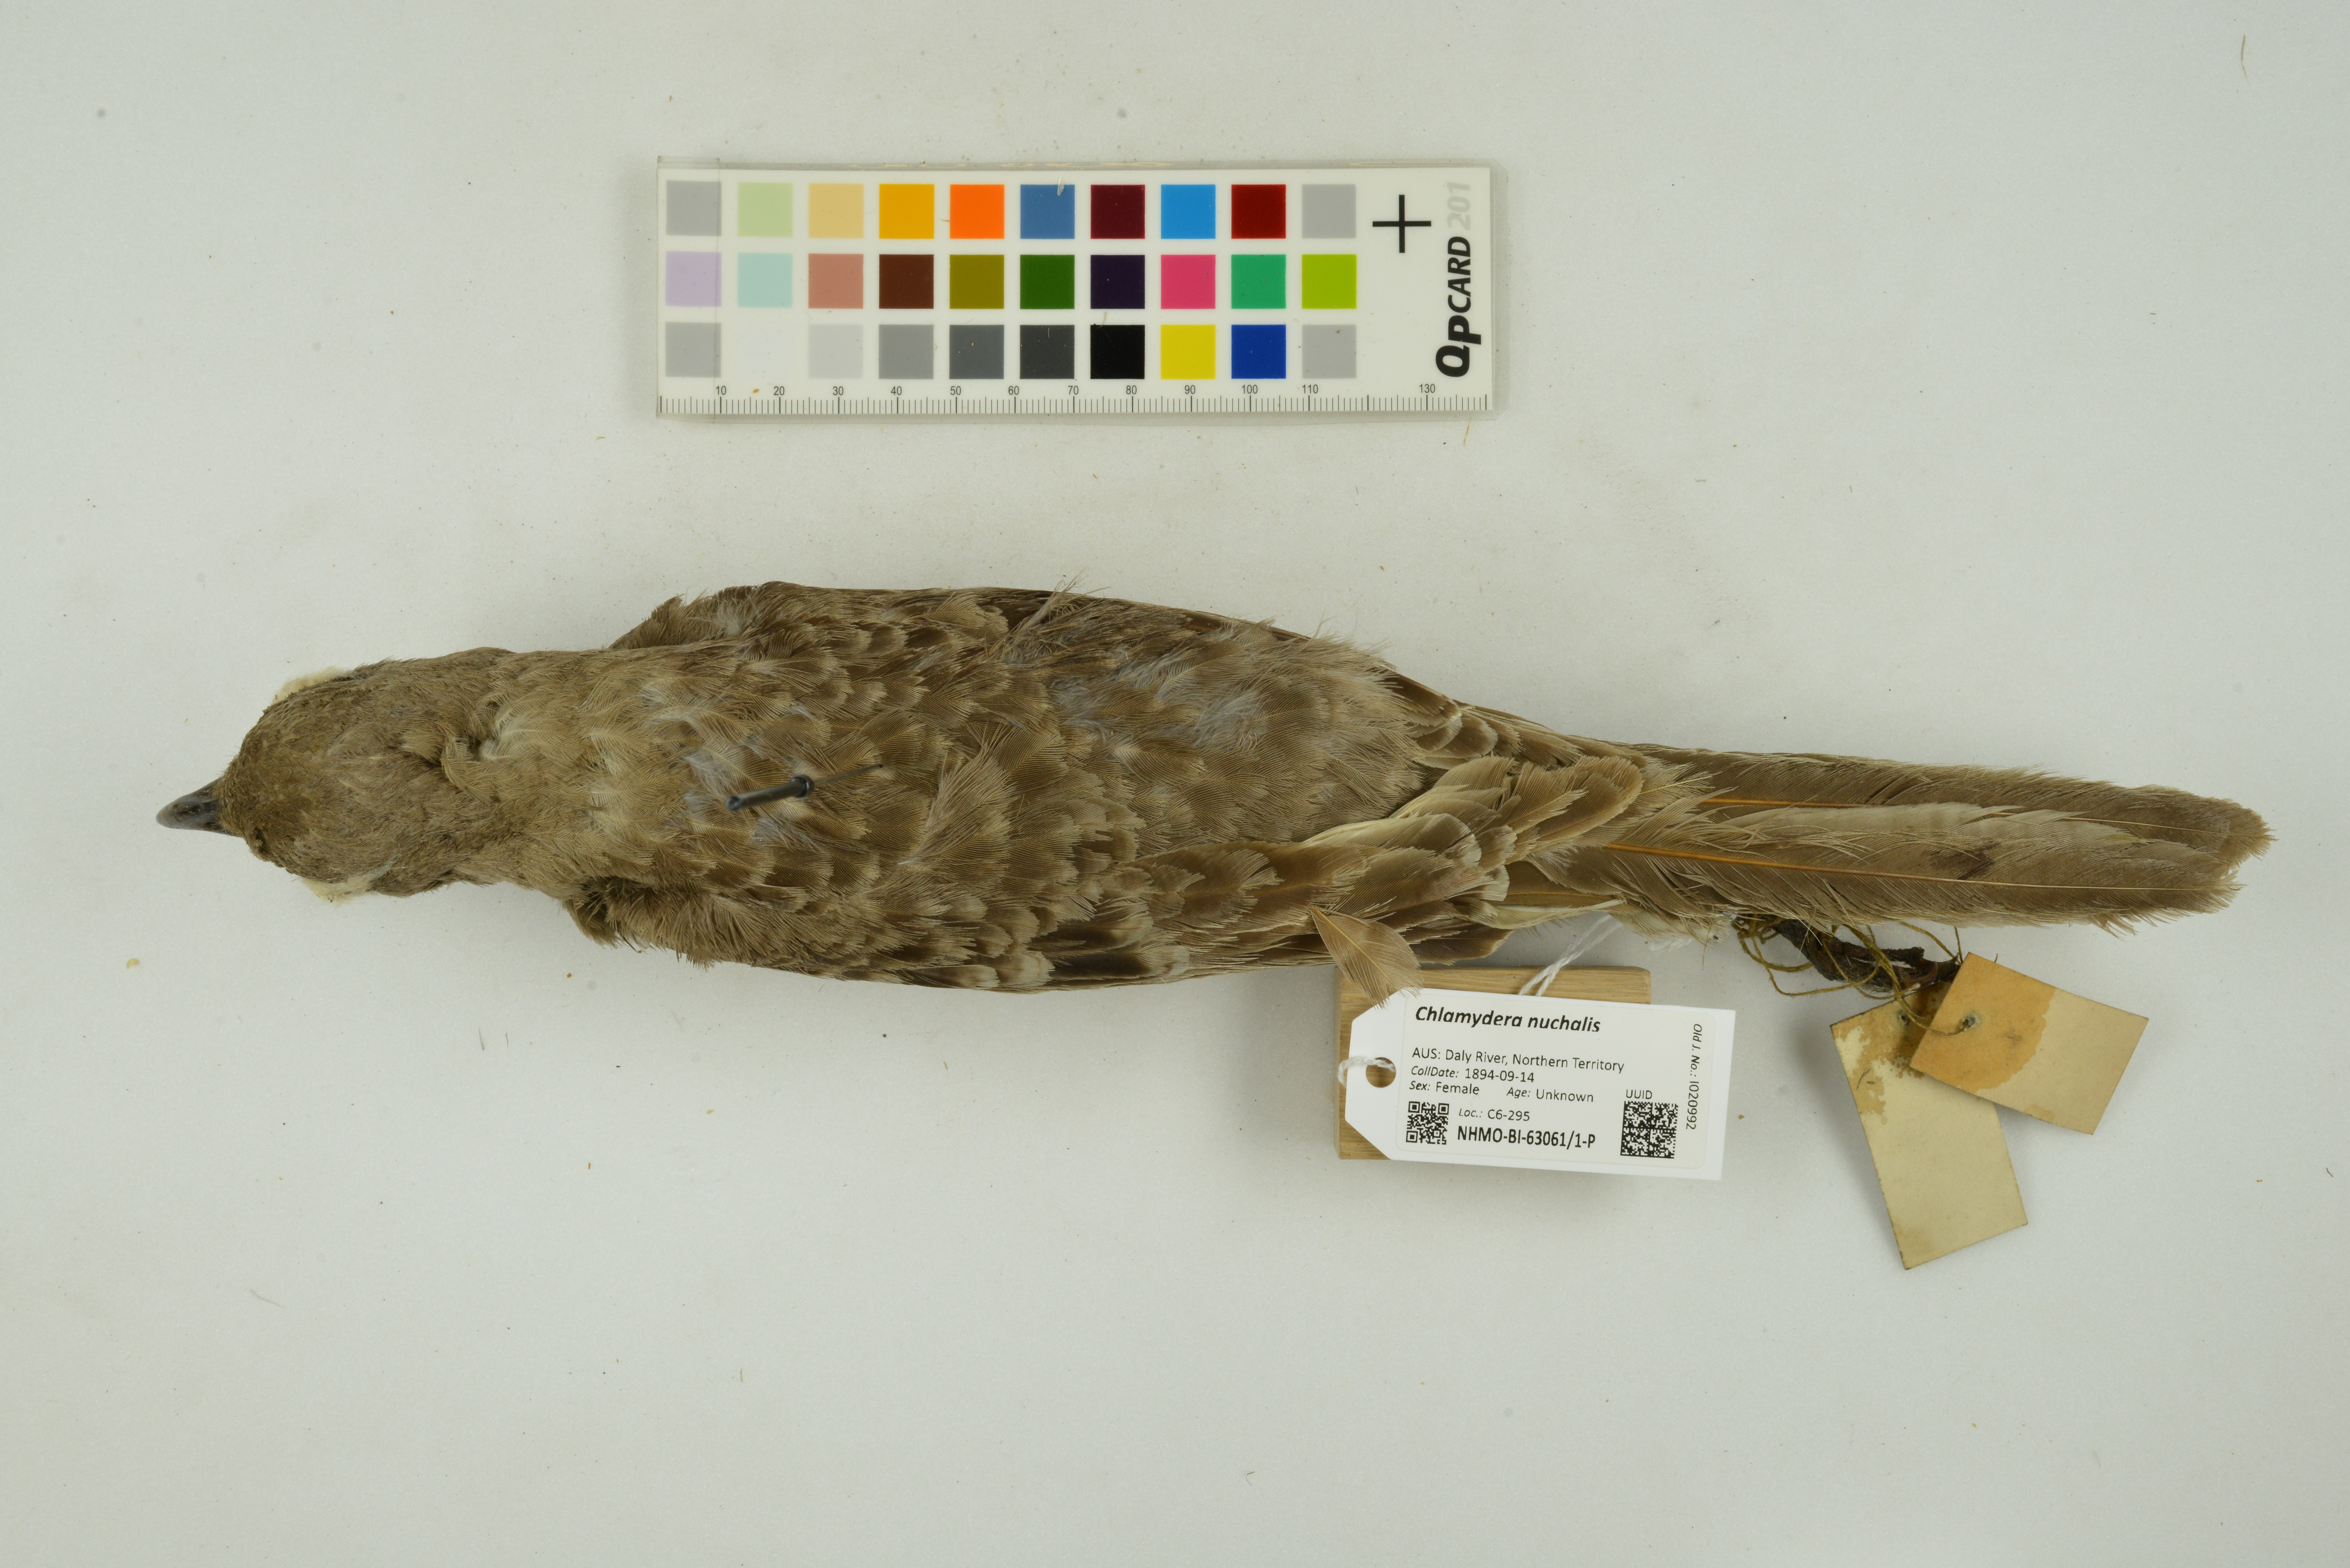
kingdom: Animalia
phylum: Chordata
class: Aves
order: Passeriformes
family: Ptilonorhynchidae
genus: Chlamydera
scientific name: Chlamydera nuchalis
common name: Great bowerbird
